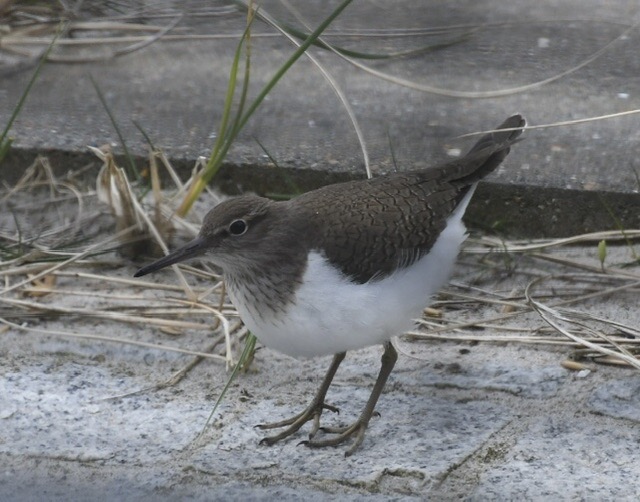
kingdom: Animalia
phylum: Chordata
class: Aves
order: Charadriiformes
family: Scolopacidae
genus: Actitis
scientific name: Actitis hypoleucos
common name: Mudderklire
